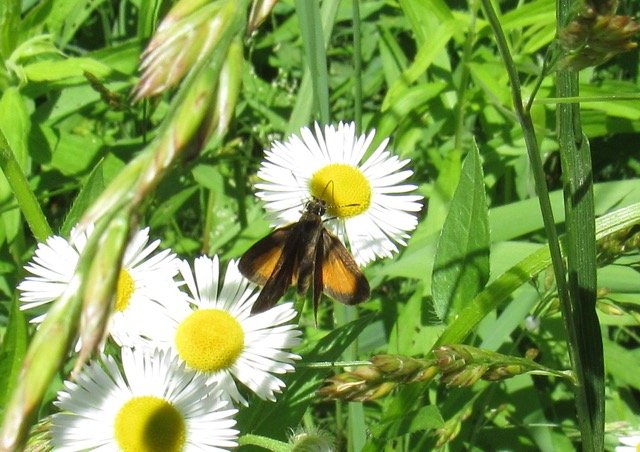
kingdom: Animalia
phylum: Arthropoda
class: Insecta
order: Lepidoptera
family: Hesperiidae
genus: Ancyloxypha
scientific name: Ancyloxypha numitor
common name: Least Skipper
